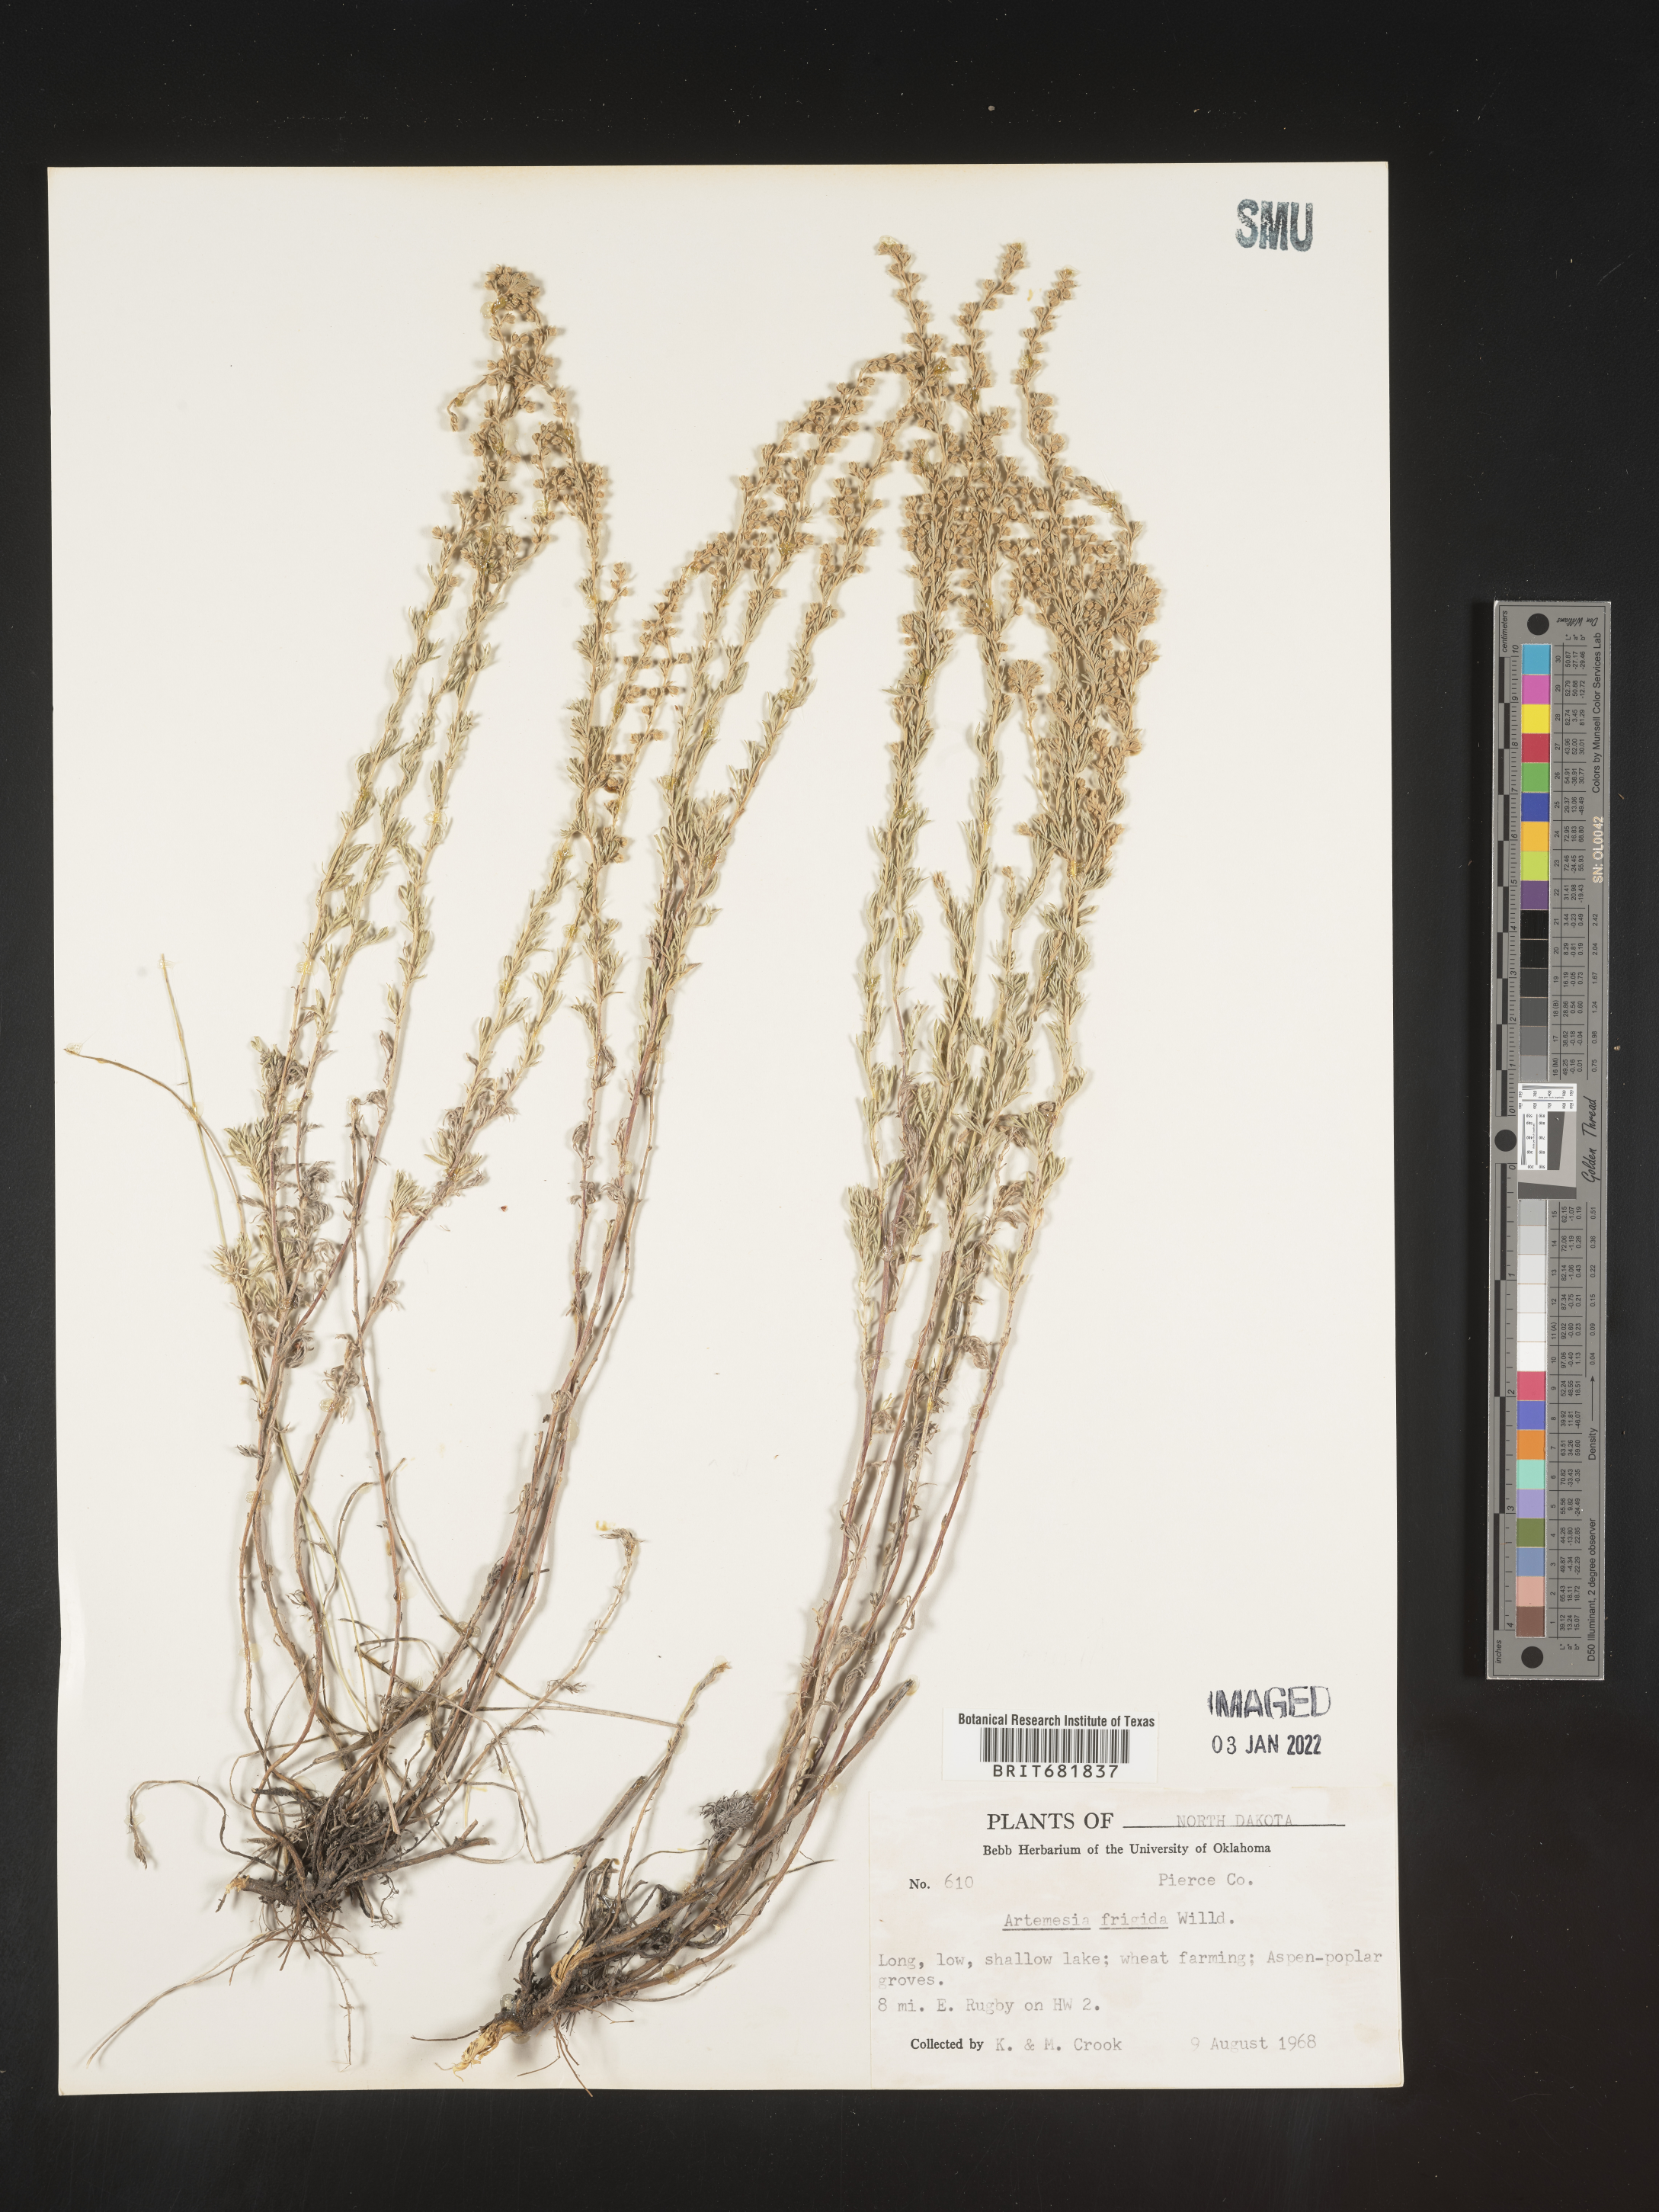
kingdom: Plantae
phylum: Tracheophyta
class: Magnoliopsida
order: Asterales
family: Asteraceae
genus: Artemisia
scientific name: Artemisia frigida
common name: Prairie sagewort
